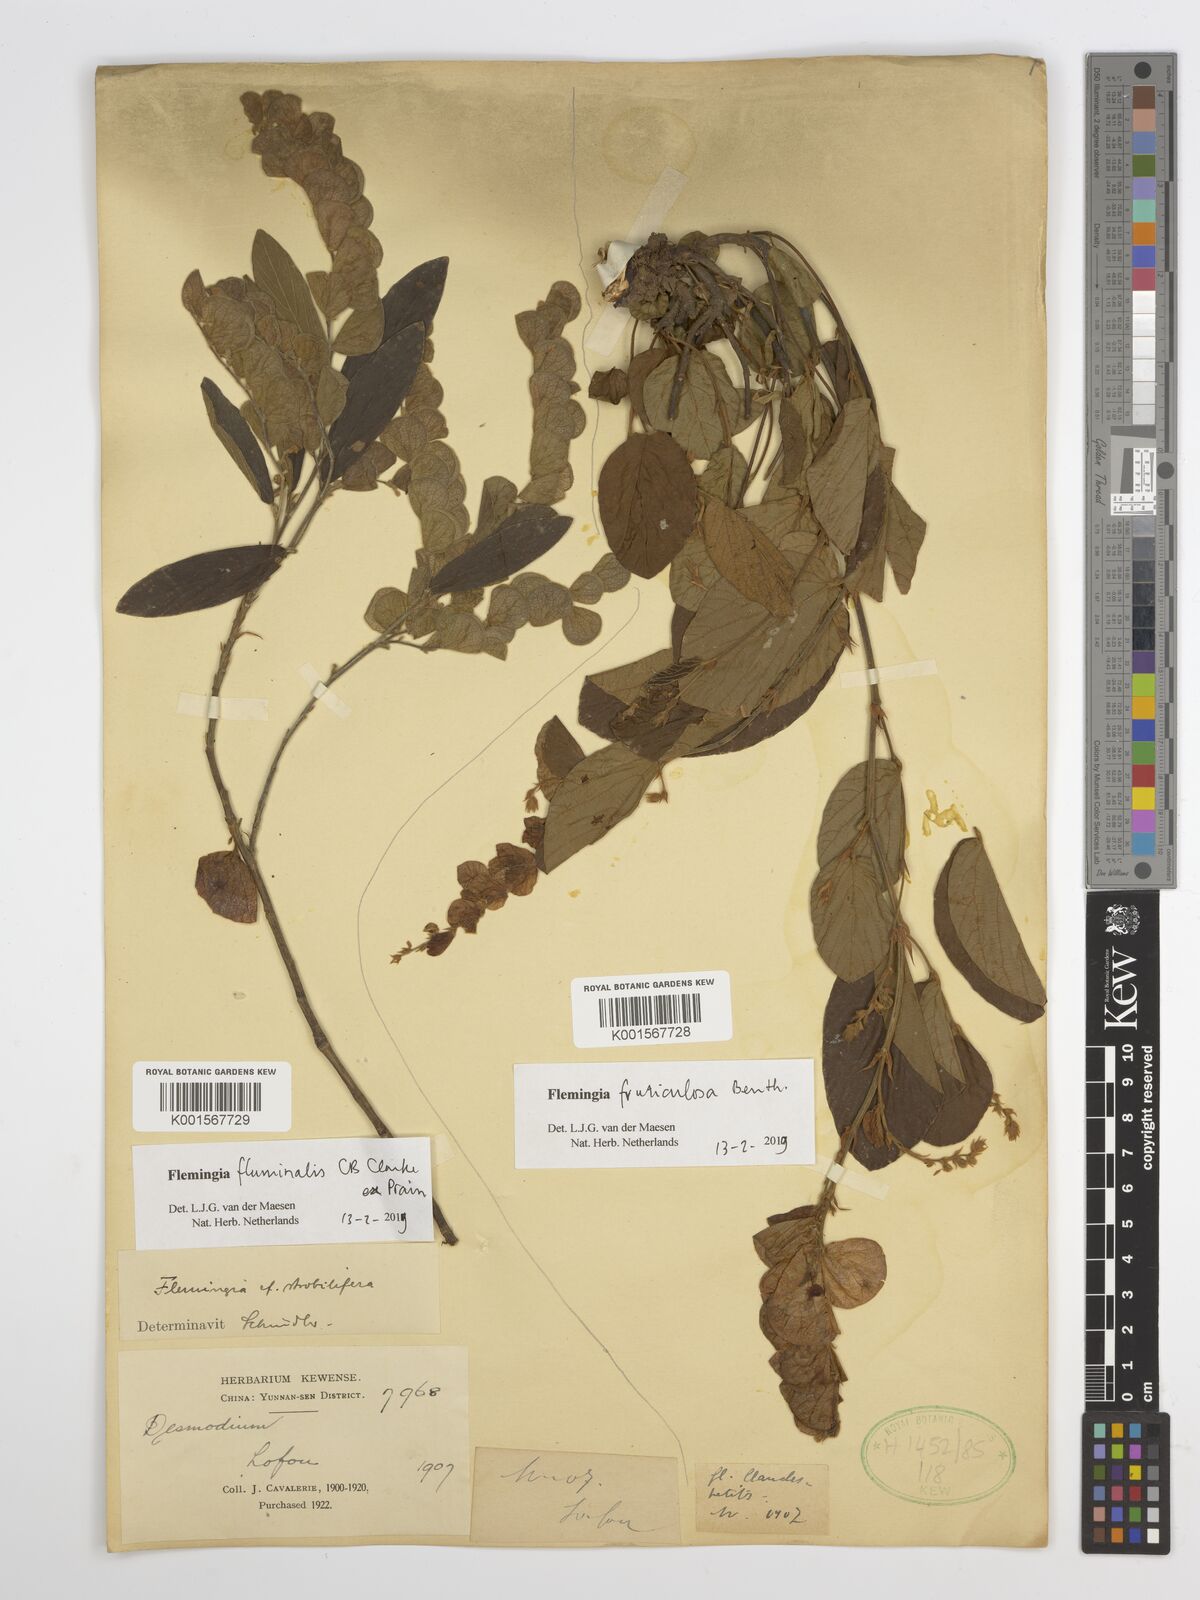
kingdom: Plantae
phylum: Tracheophyta
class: Magnoliopsida
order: Fabales
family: Fabaceae
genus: Flemingia
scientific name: Flemingia fluminalis
